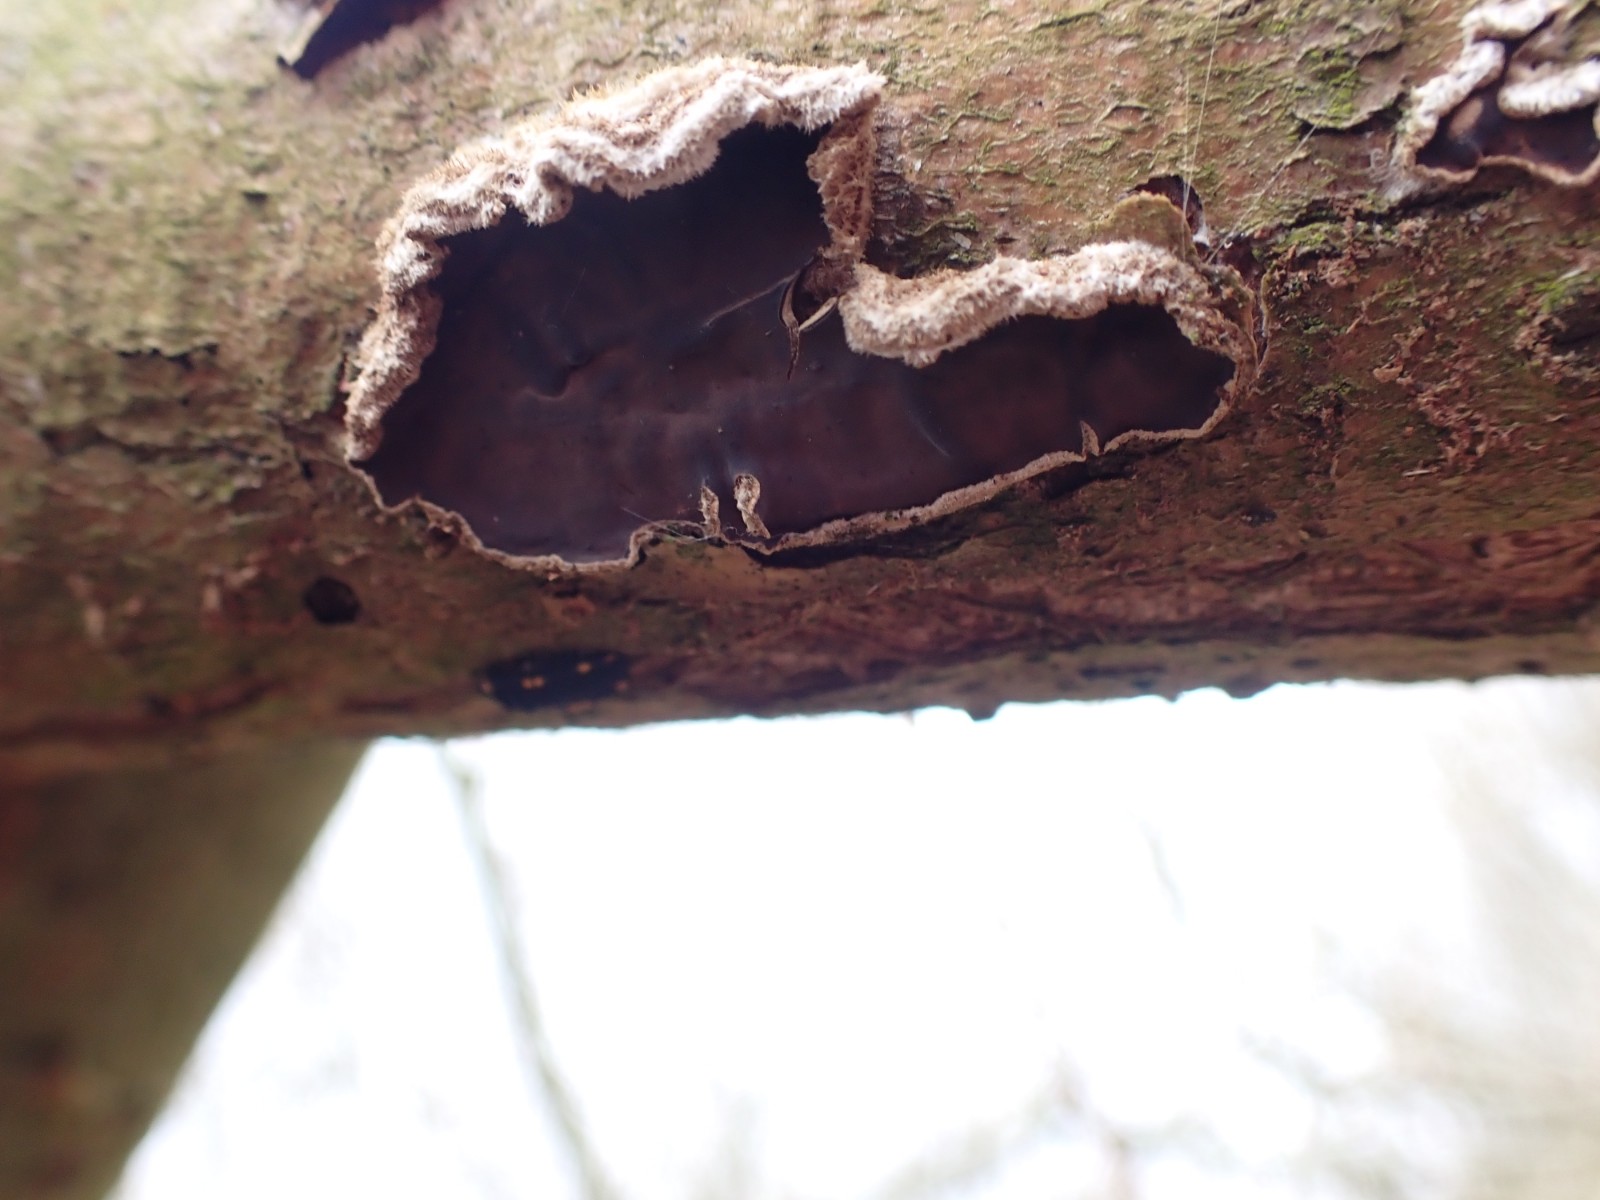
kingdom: Fungi
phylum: Basidiomycota
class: Agaricomycetes
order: Agaricales
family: Cyphellaceae
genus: Chondrostereum
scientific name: Chondrostereum purpureum
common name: purpurlædersvamp
